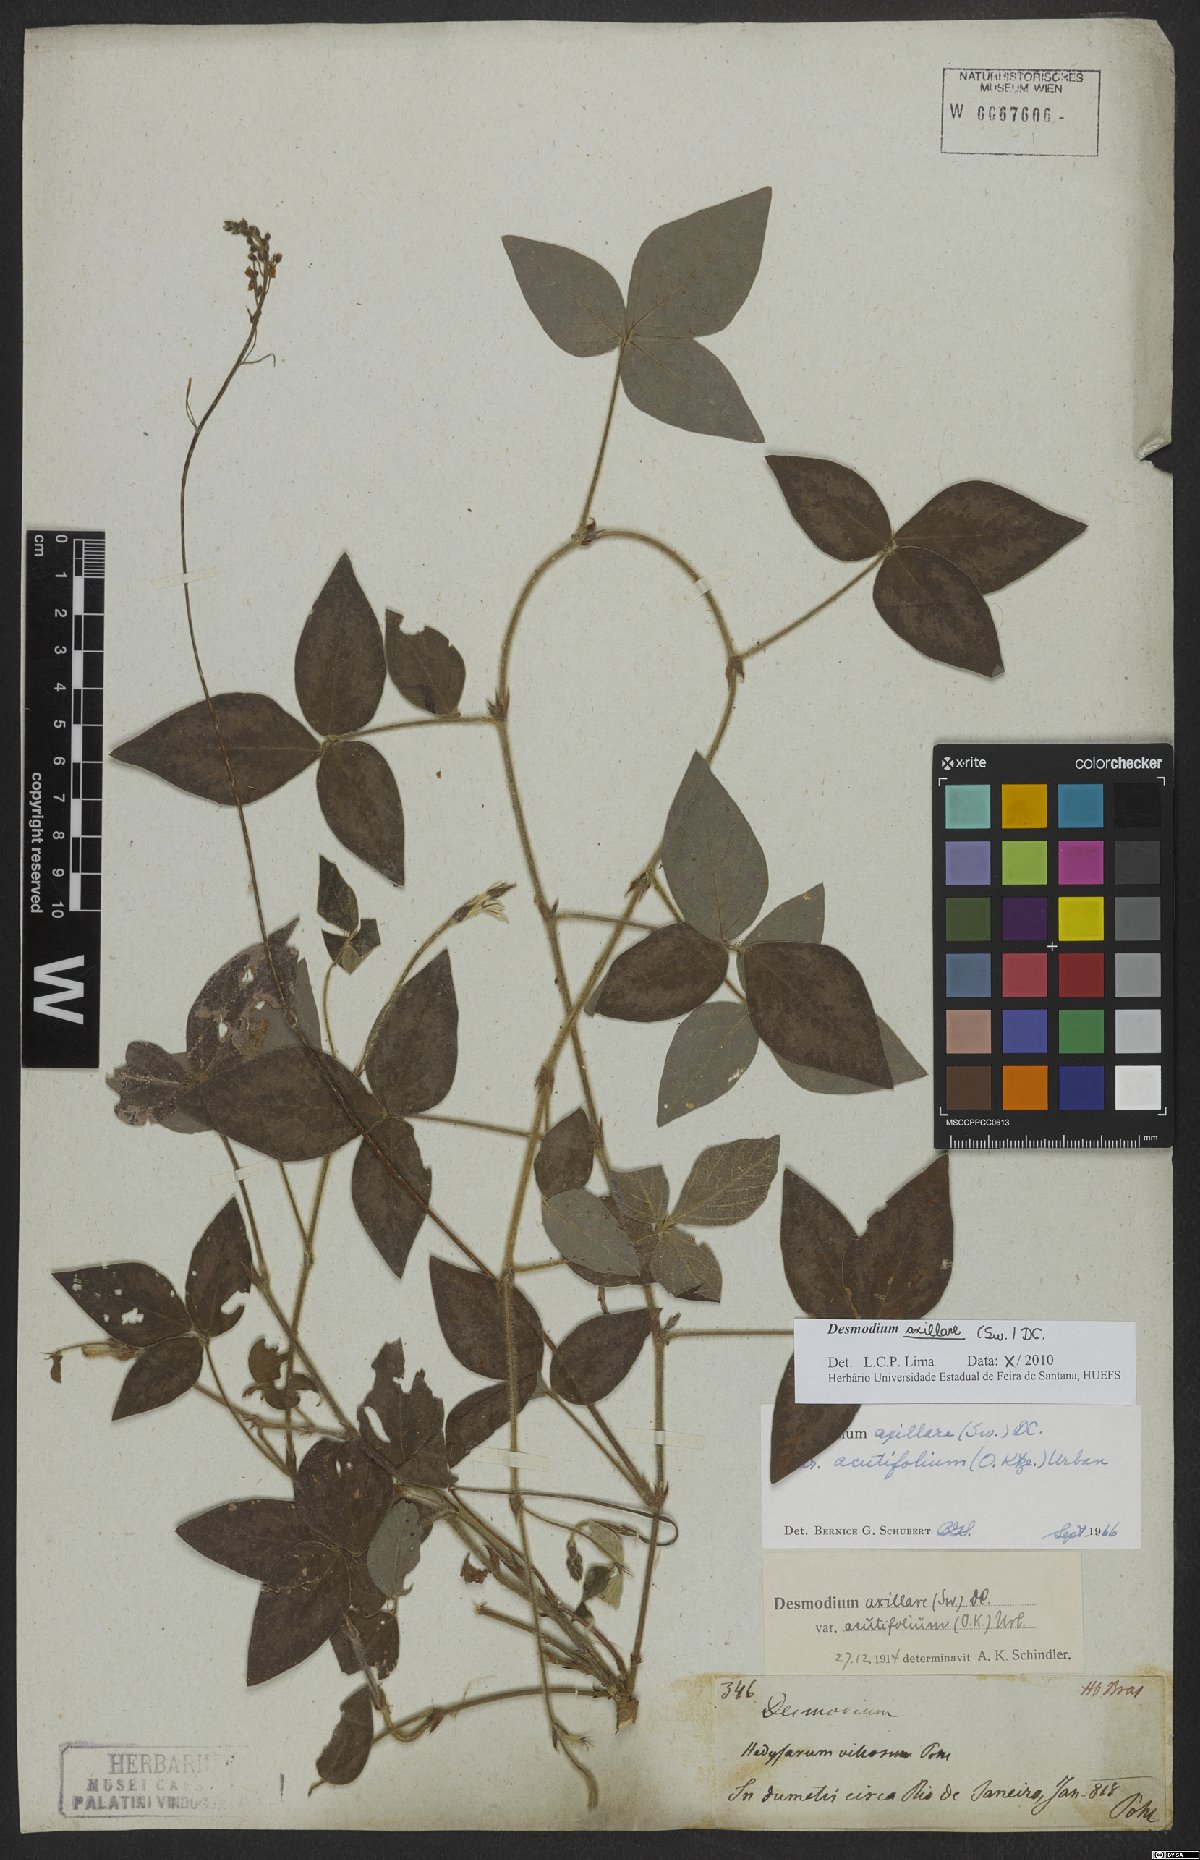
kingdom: Plantae
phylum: Tracheophyta
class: Magnoliopsida
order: Fabales
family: Fabaceae
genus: Desmodium
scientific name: Desmodium axillare
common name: Wire with
